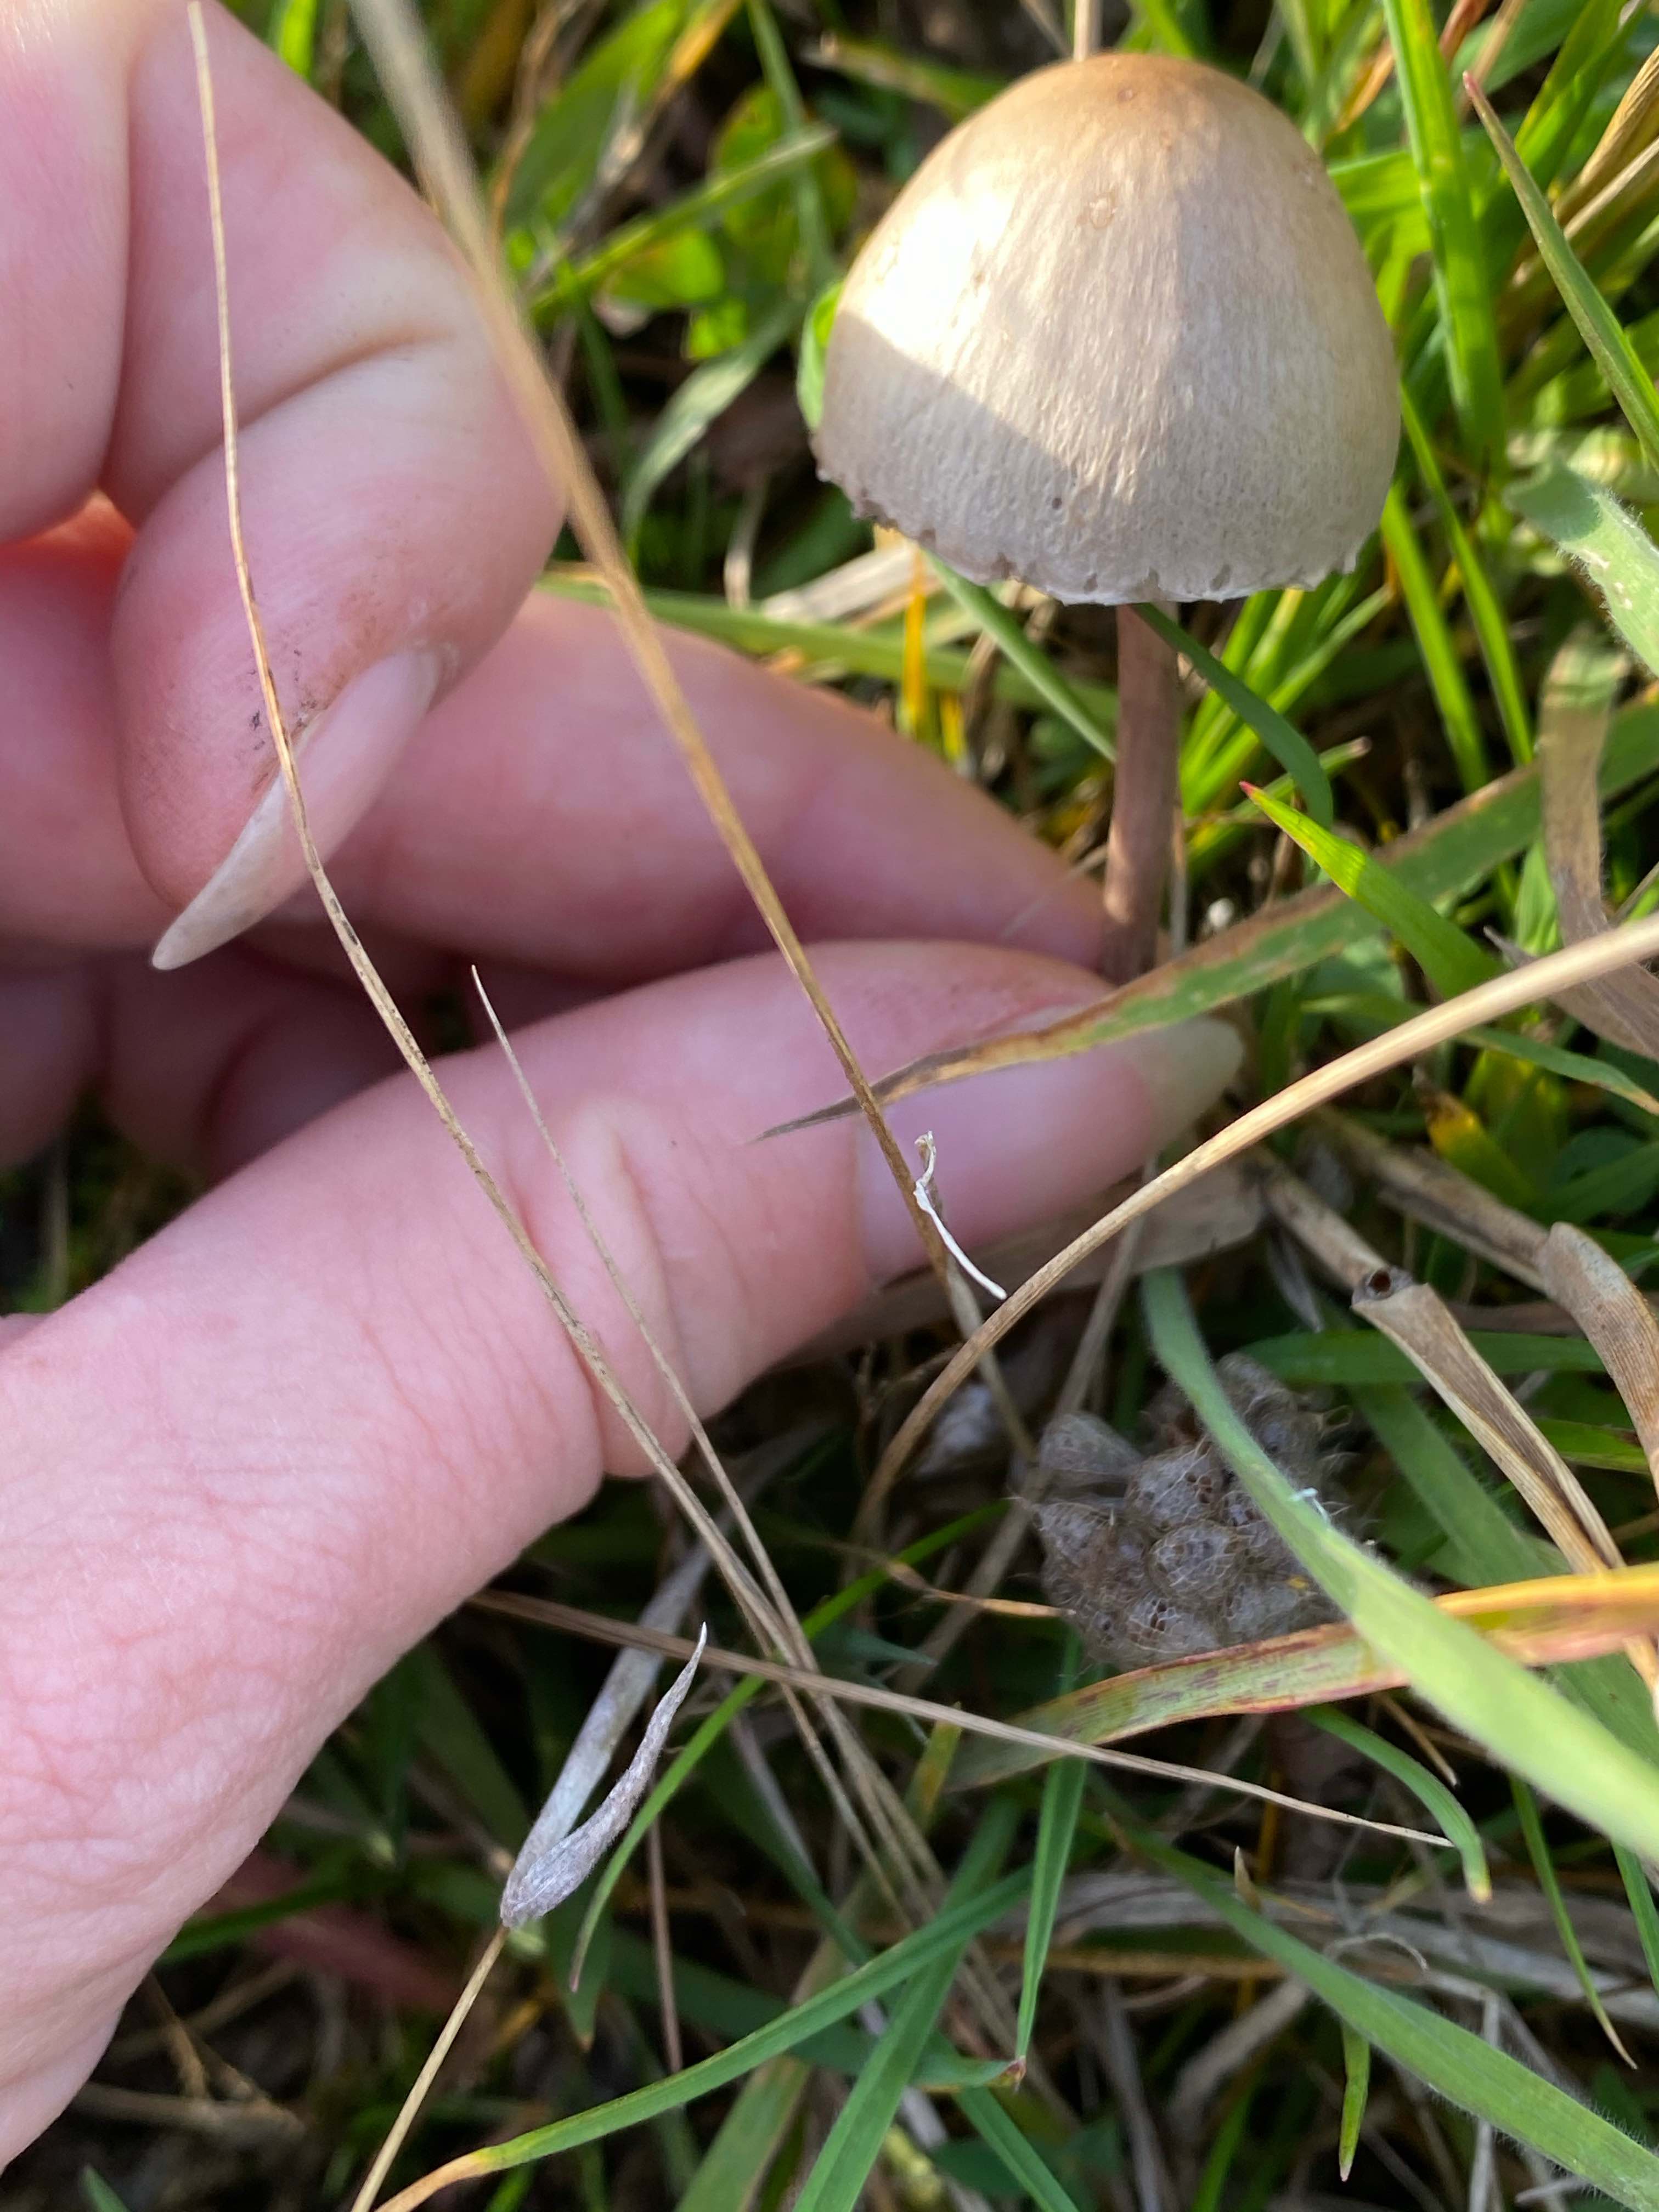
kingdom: Fungi
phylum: Basidiomycota
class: Agaricomycetes
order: Agaricales
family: Bolbitiaceae
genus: Panaeolus
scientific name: Panaeolus papilionaceus
